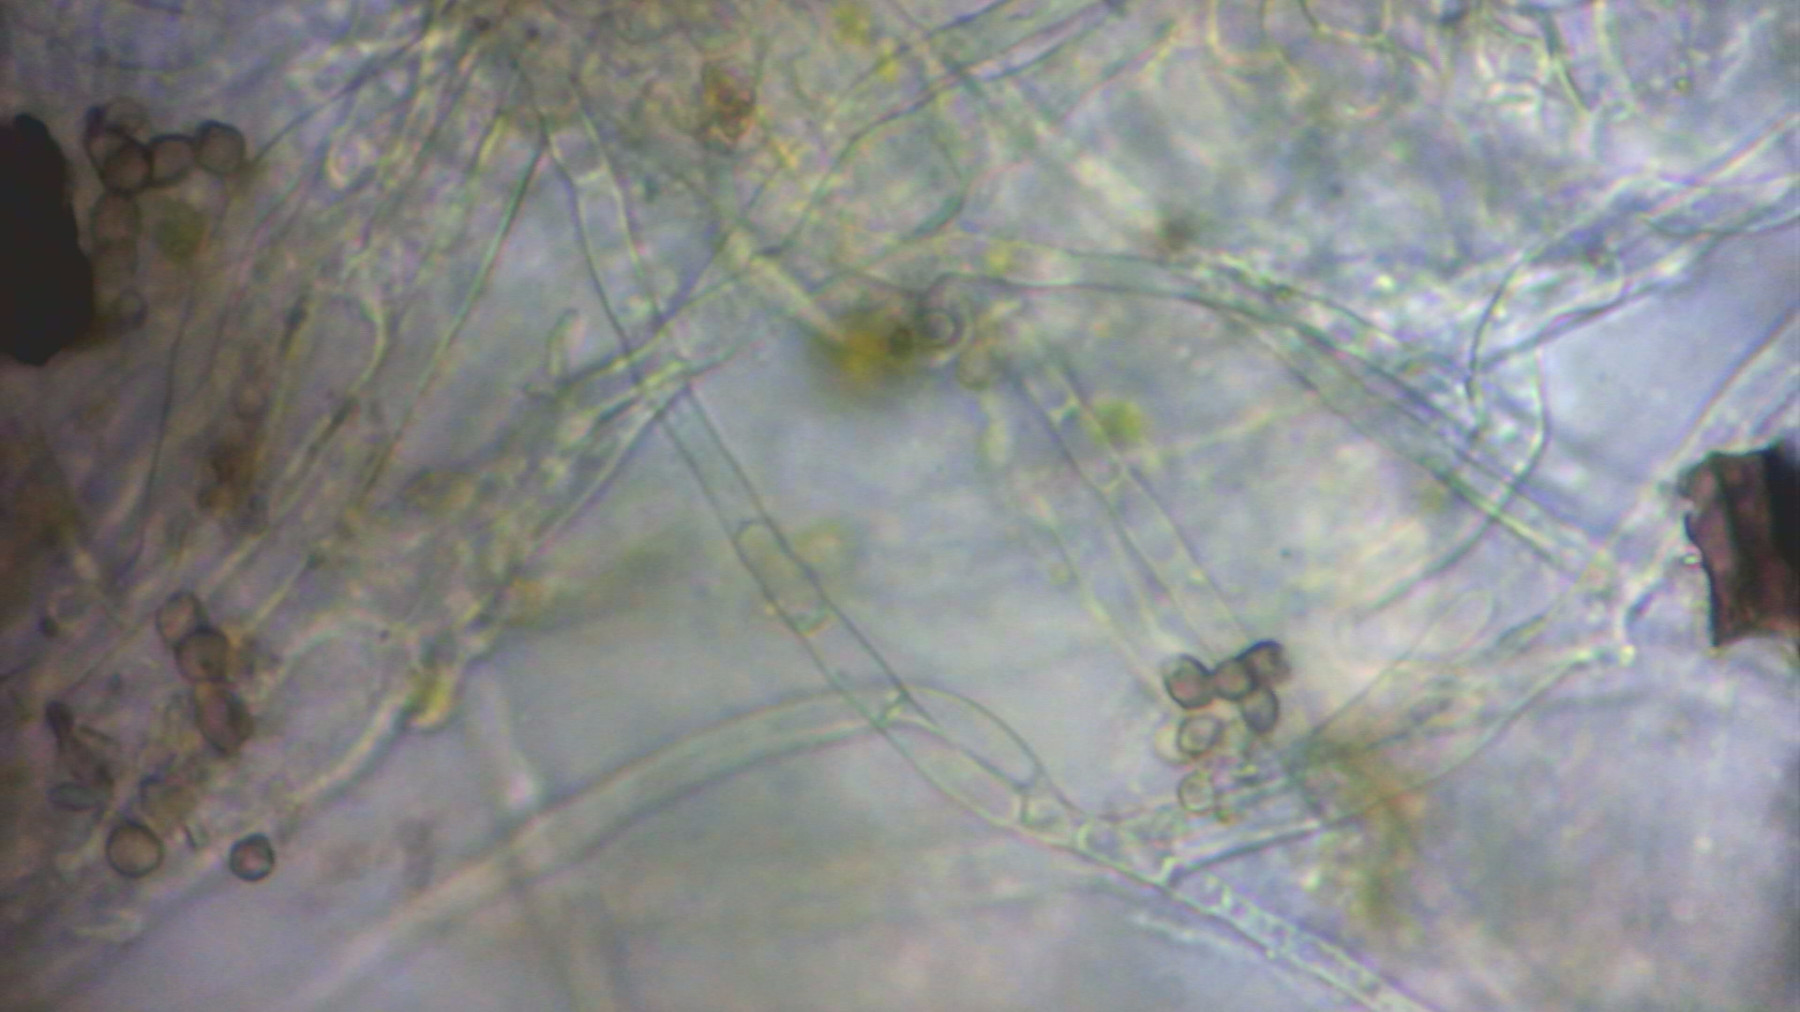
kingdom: Fungi
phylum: Ascomycota
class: Orbiliomycetes
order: Orbiliales
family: Orbiliaceae
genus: Hyalorbilia
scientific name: Hyalorbilia
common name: voksskive
